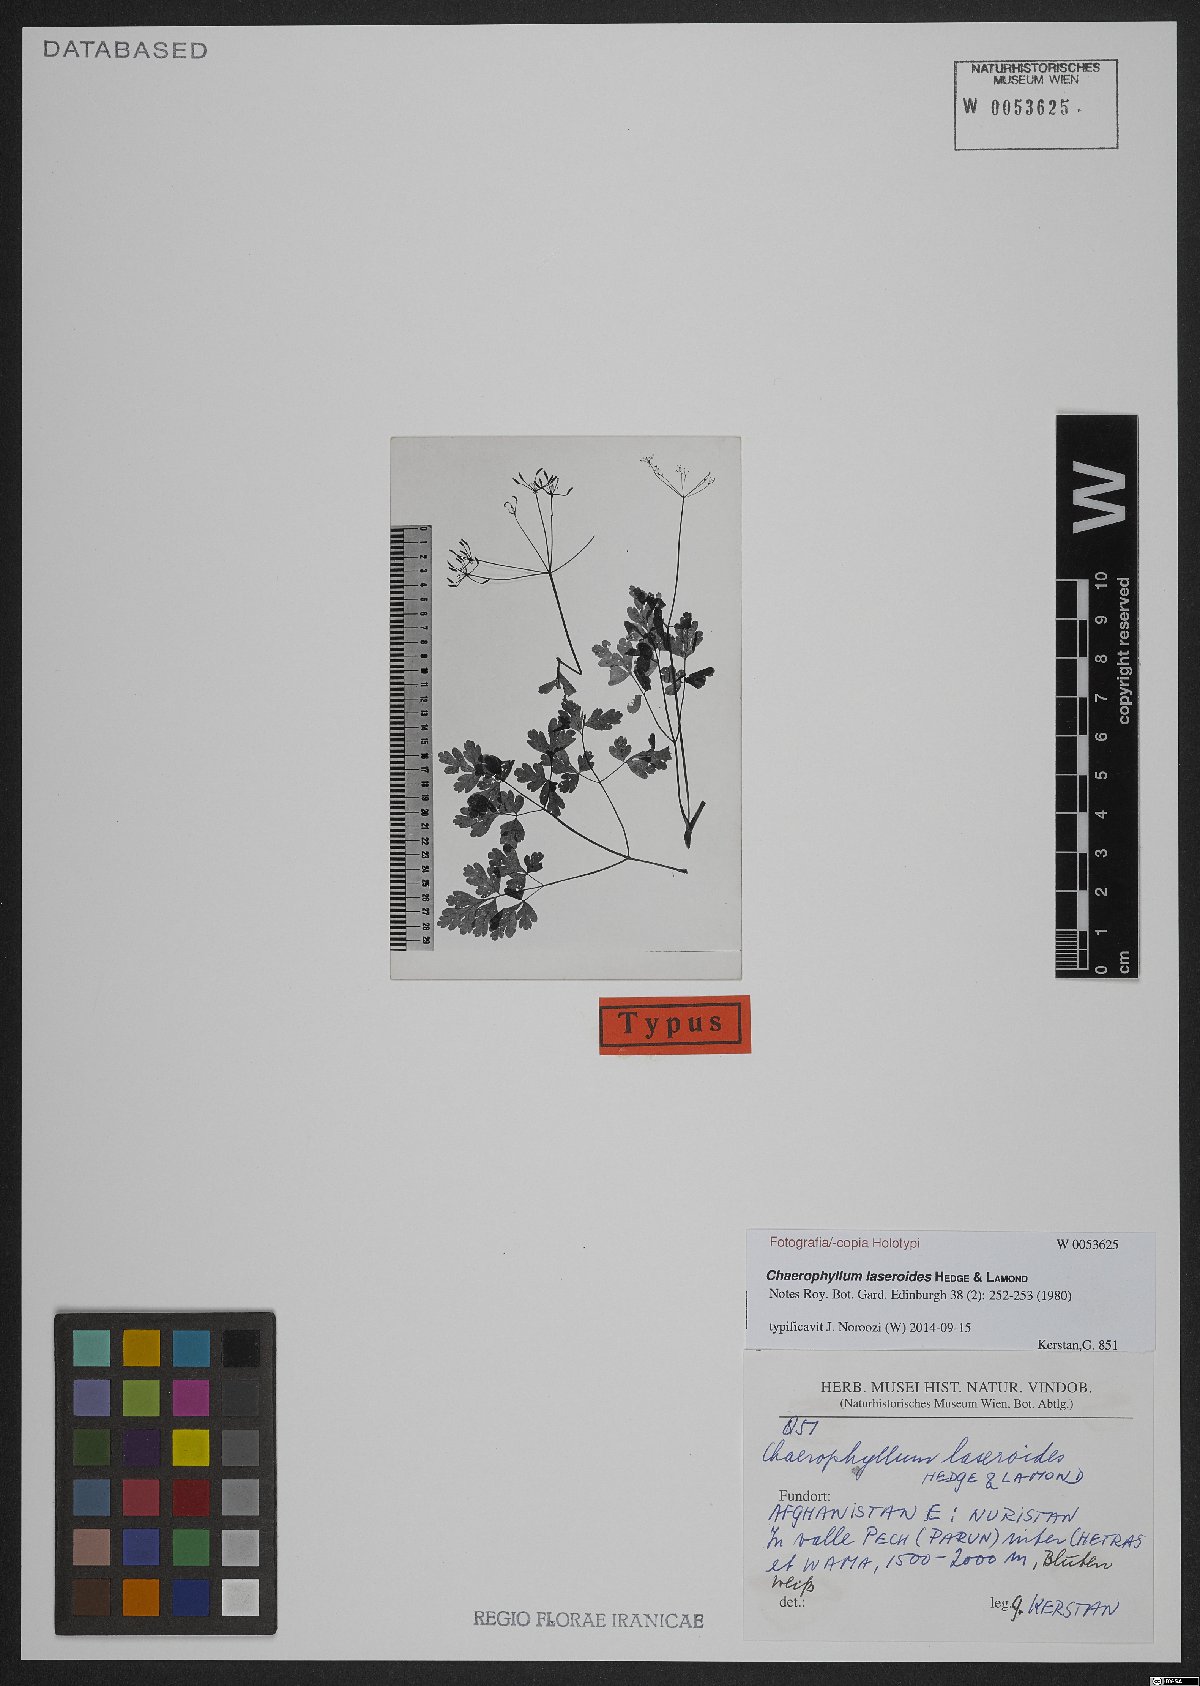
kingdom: Plantae
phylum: Tracheophyta
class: Magnoliopsida
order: Apiales
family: Apiaceae
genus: Kozlovia
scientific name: Kozlovia laseroides
